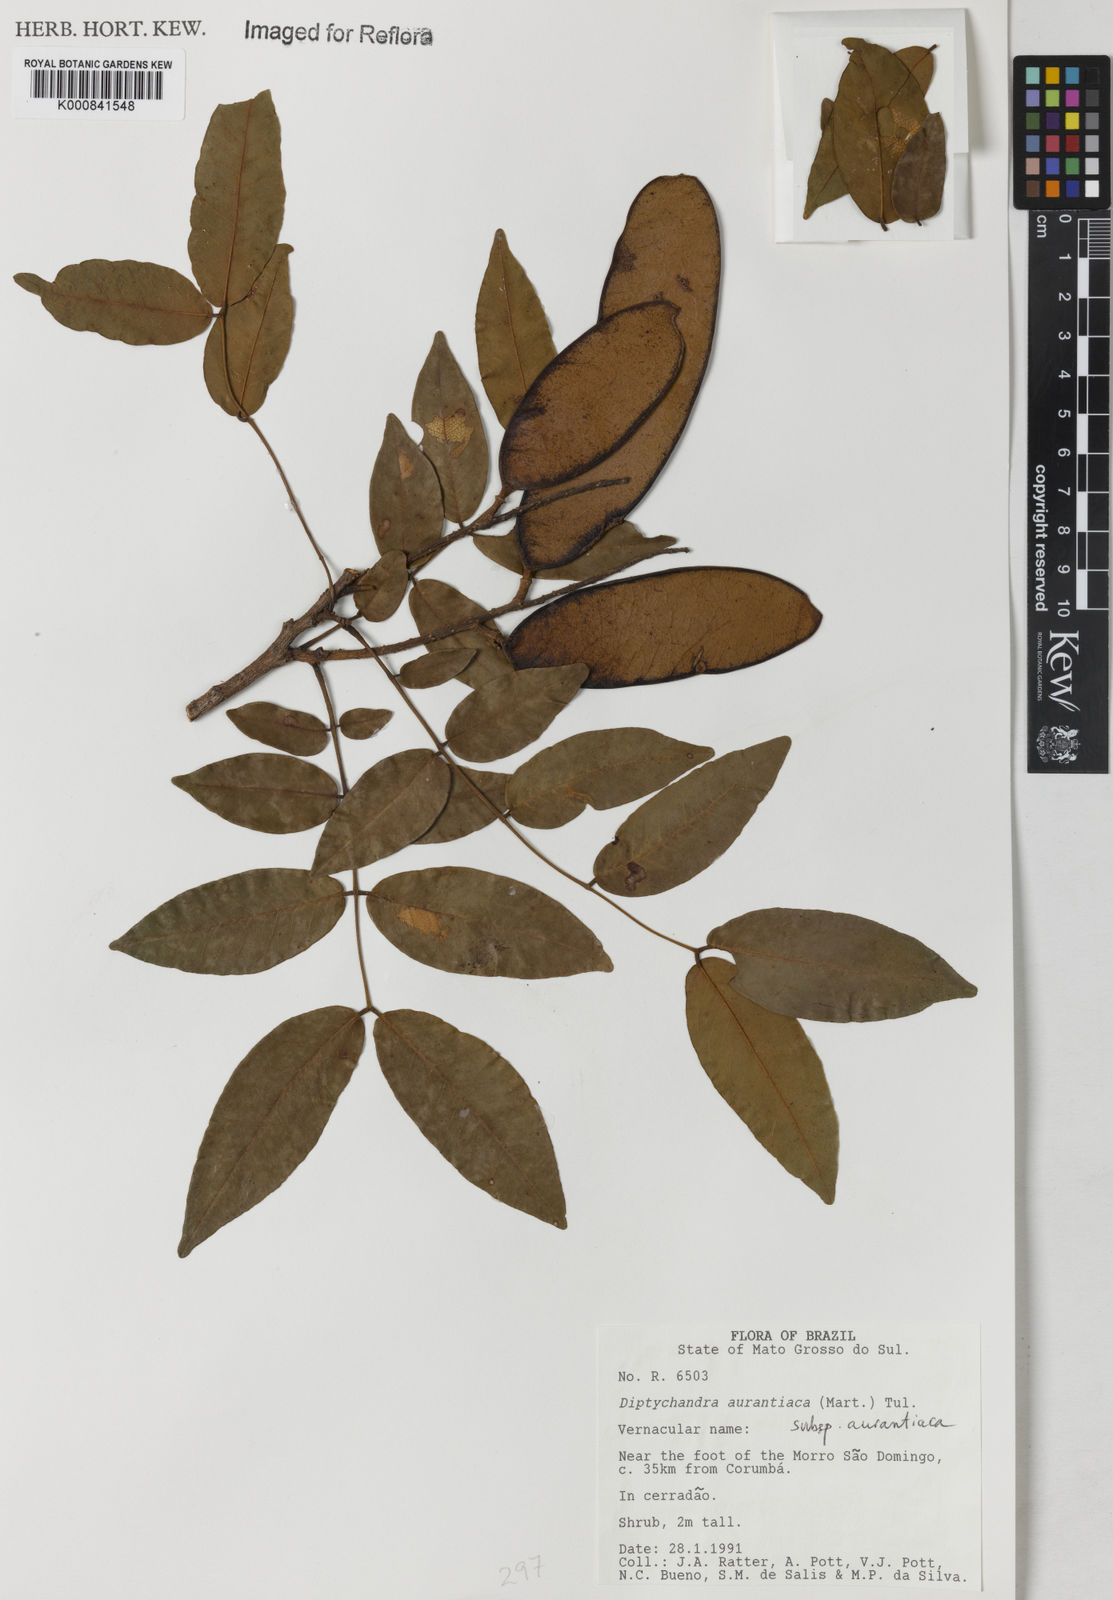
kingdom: Plantae
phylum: Tracheophyta
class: Magnoliopsida
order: Fabales
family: Fabaceae
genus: Diptychandra
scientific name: Diptychandra aurantiaca
